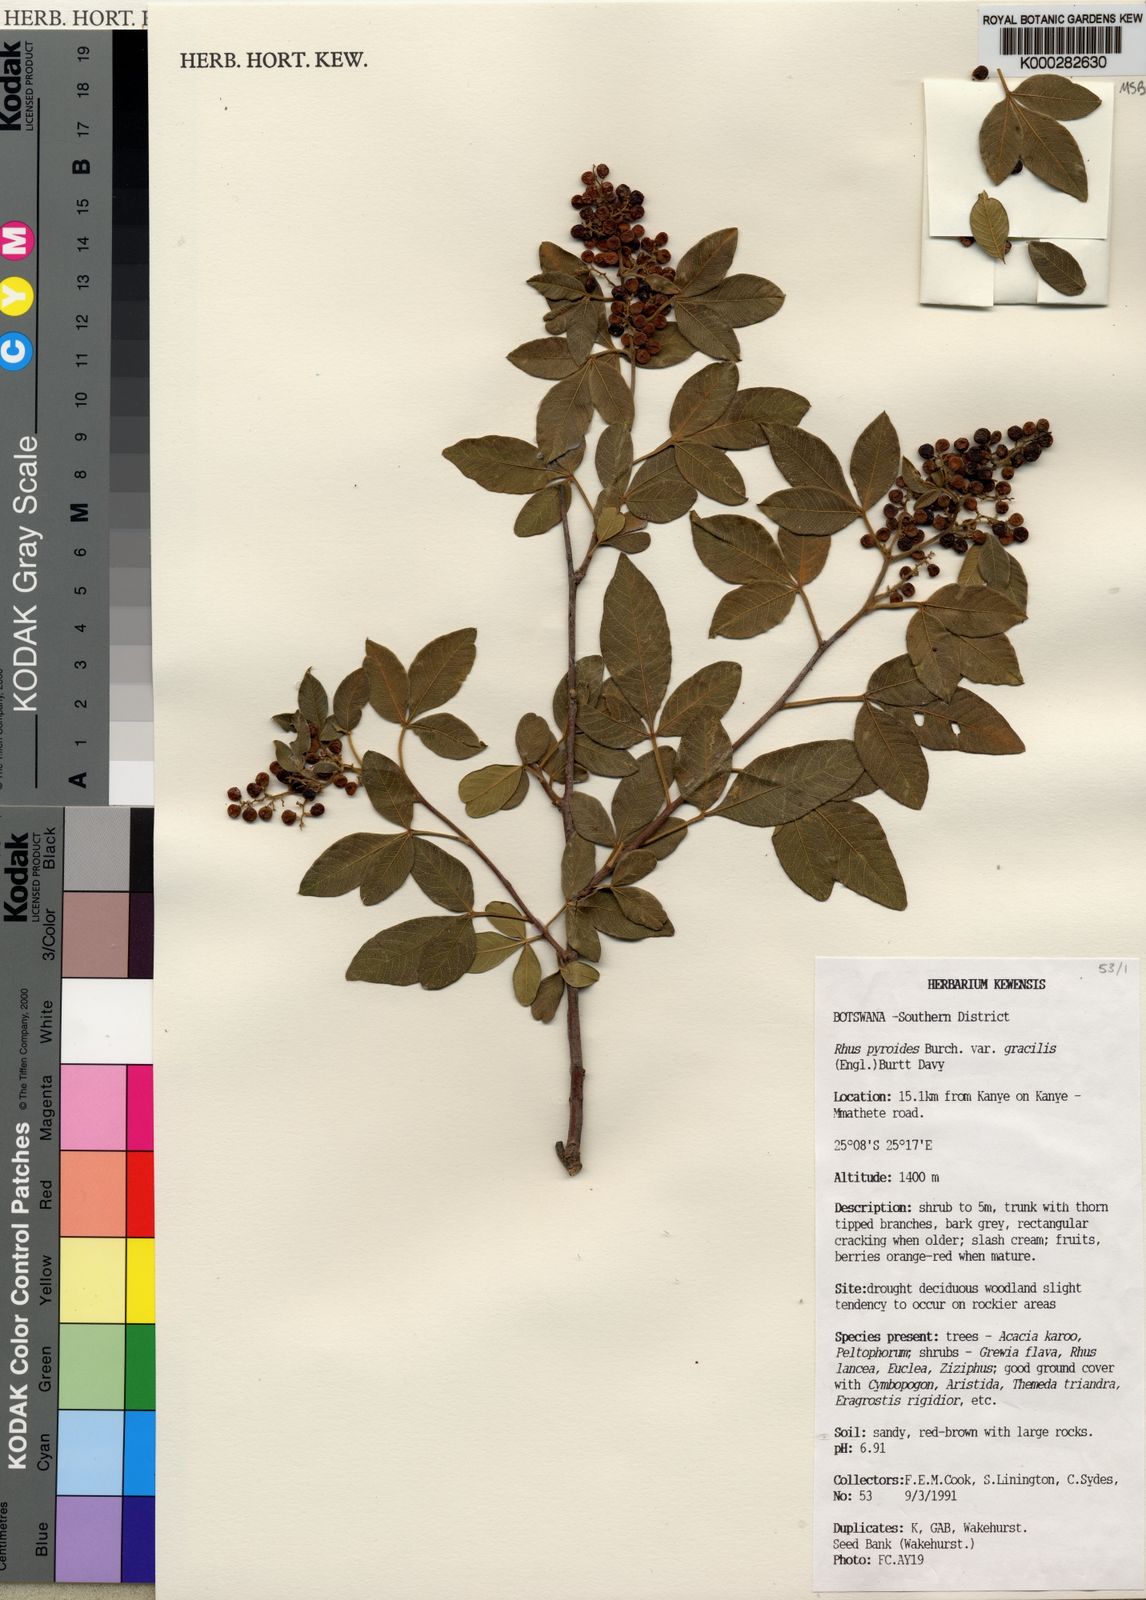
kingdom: Plantae
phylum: Tracheophyta
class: Magnoliopsida
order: Sapindales
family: Anacardiaceae
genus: Searsia
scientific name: Searsia pyroides
